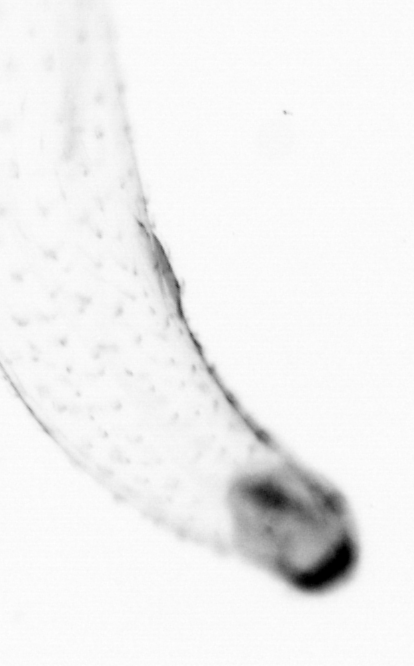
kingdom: Animalia
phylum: Chaetognatha
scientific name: Chaetognatha
